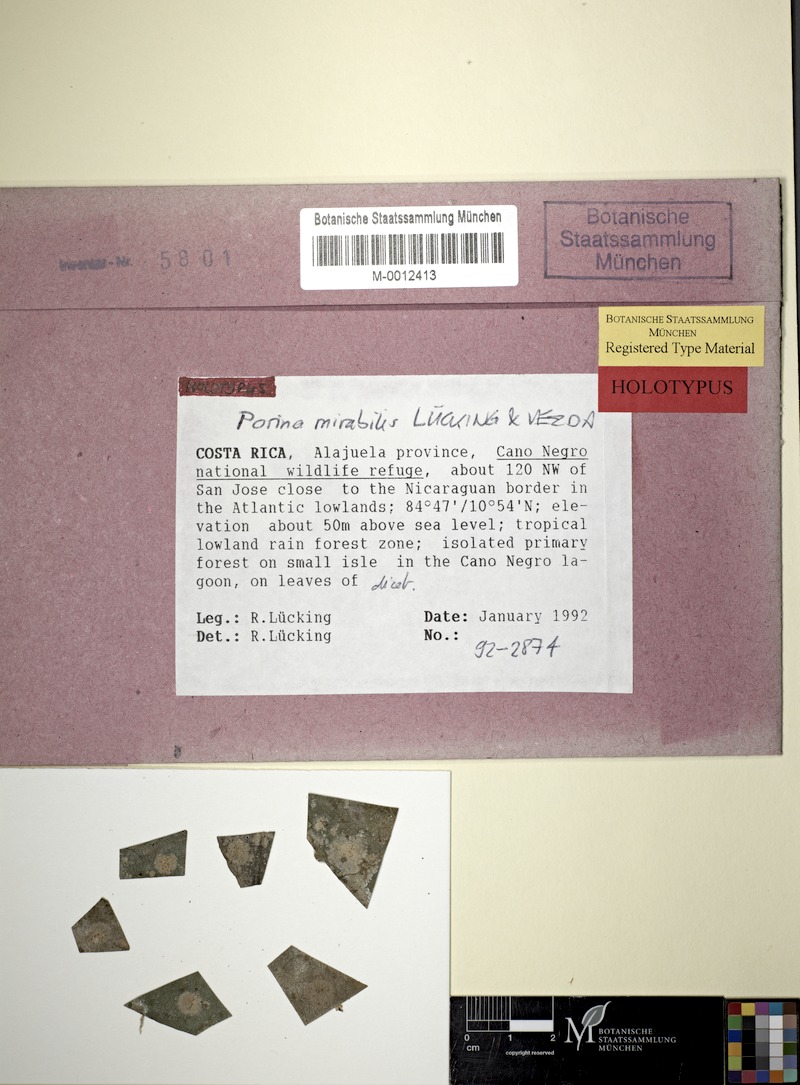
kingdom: Fungi
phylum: Ascomycota
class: Lecanoromycetes
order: Pertusariales
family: Pertusariaceae
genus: Porina
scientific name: Porina alba
